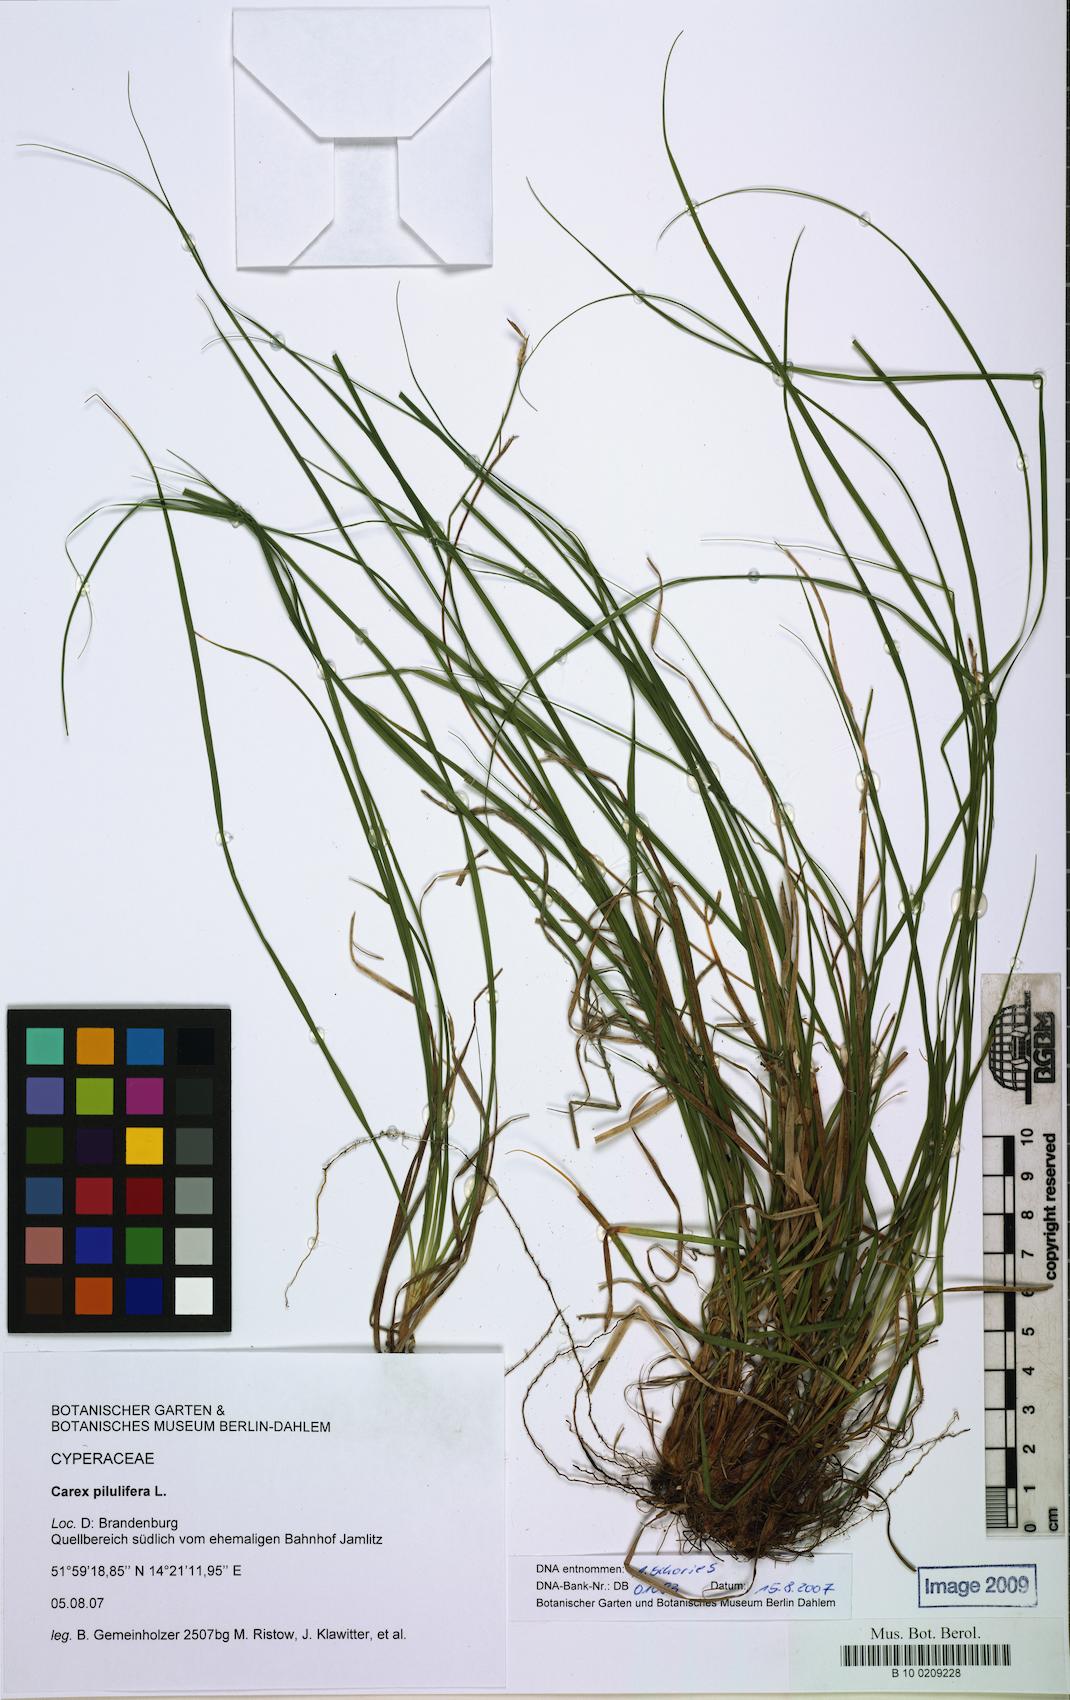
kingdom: Plantae
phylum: Tracheophyta
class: Liliopsida
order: Poales
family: Cyperaceae
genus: Carex
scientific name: Carex pilulifera
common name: Pill sedge
